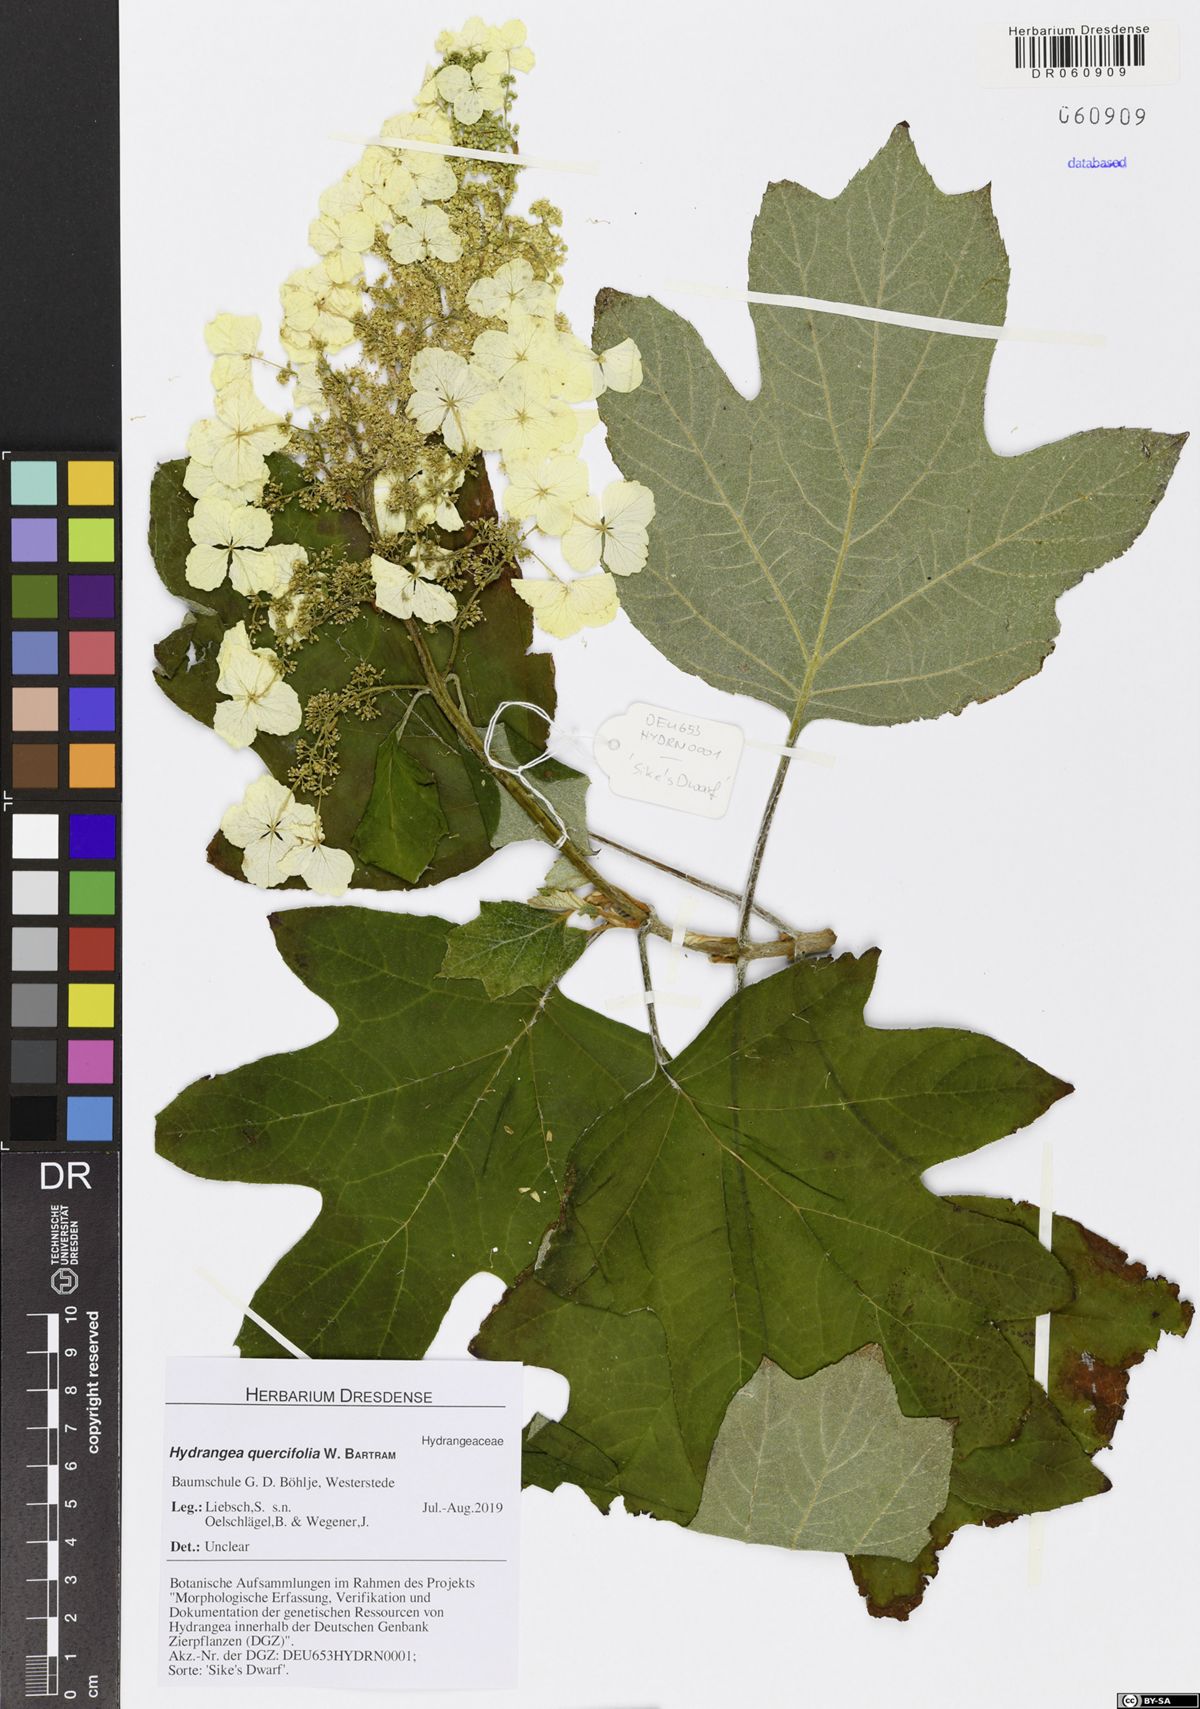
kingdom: Plantae
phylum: Tracheophyta
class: Magnoliopsida
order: Cornales
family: Hydrangeaceae
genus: Hydrangea
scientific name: Hydrangea quercifolia
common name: Oak-leaf hydrangea
